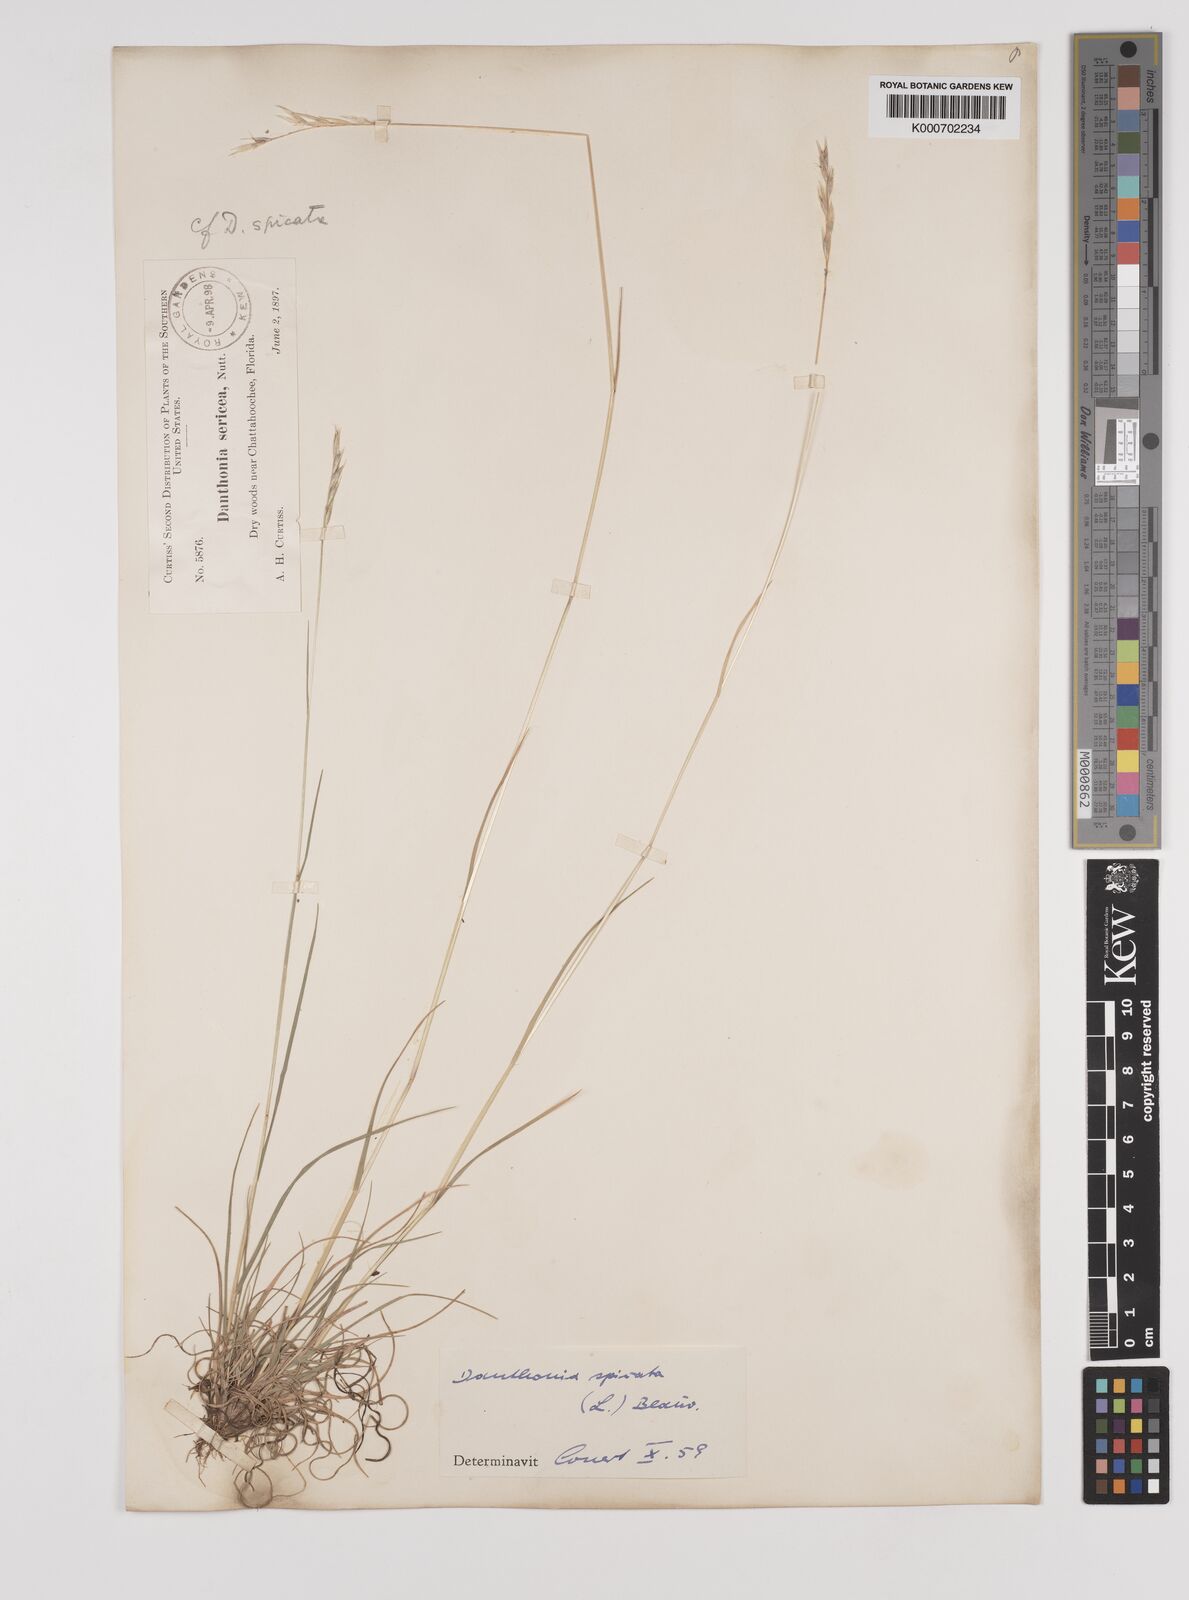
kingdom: Plantae
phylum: Tracheophyta
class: Liliopsida
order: Poales
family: Poaceae
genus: Danthonia
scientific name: Danthonia spicata
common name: Common wild oatgrass
